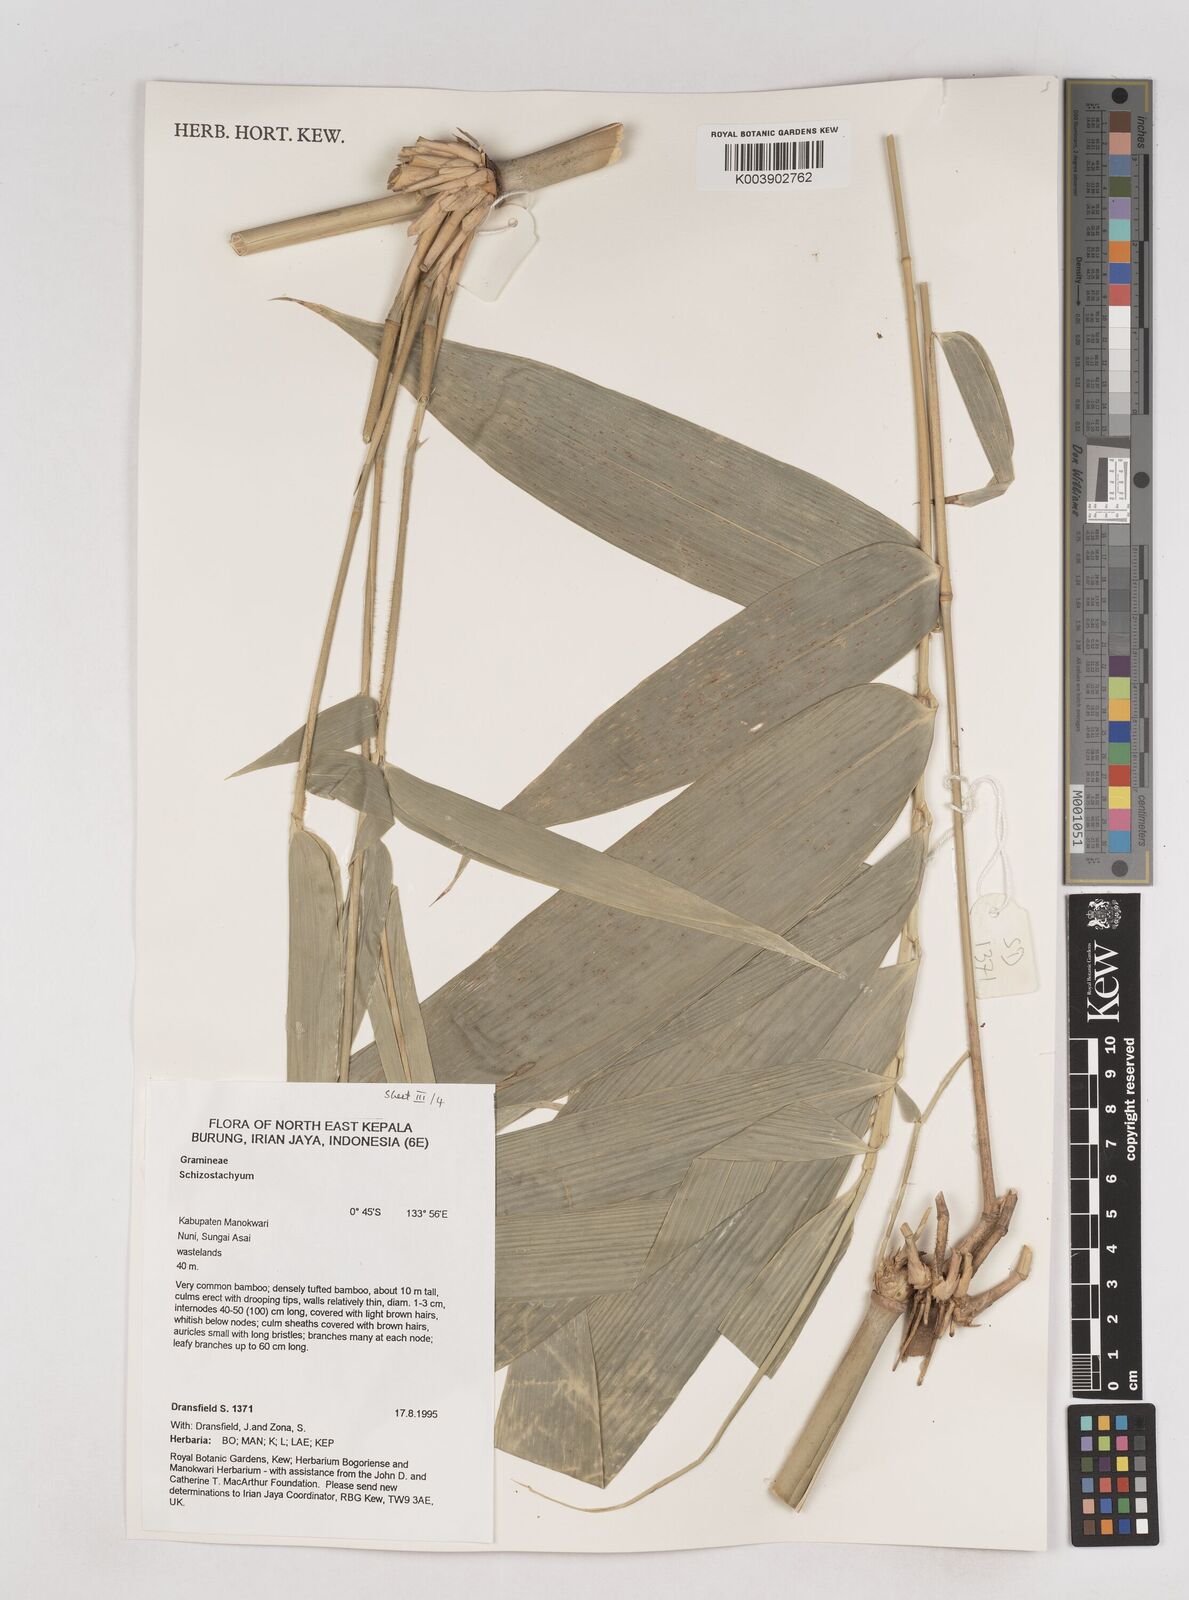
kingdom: Plantae
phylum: Tracheophyta
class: Liliopsida
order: Poales
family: Poaceae
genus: Schizostachyum
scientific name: Schizostachyum
